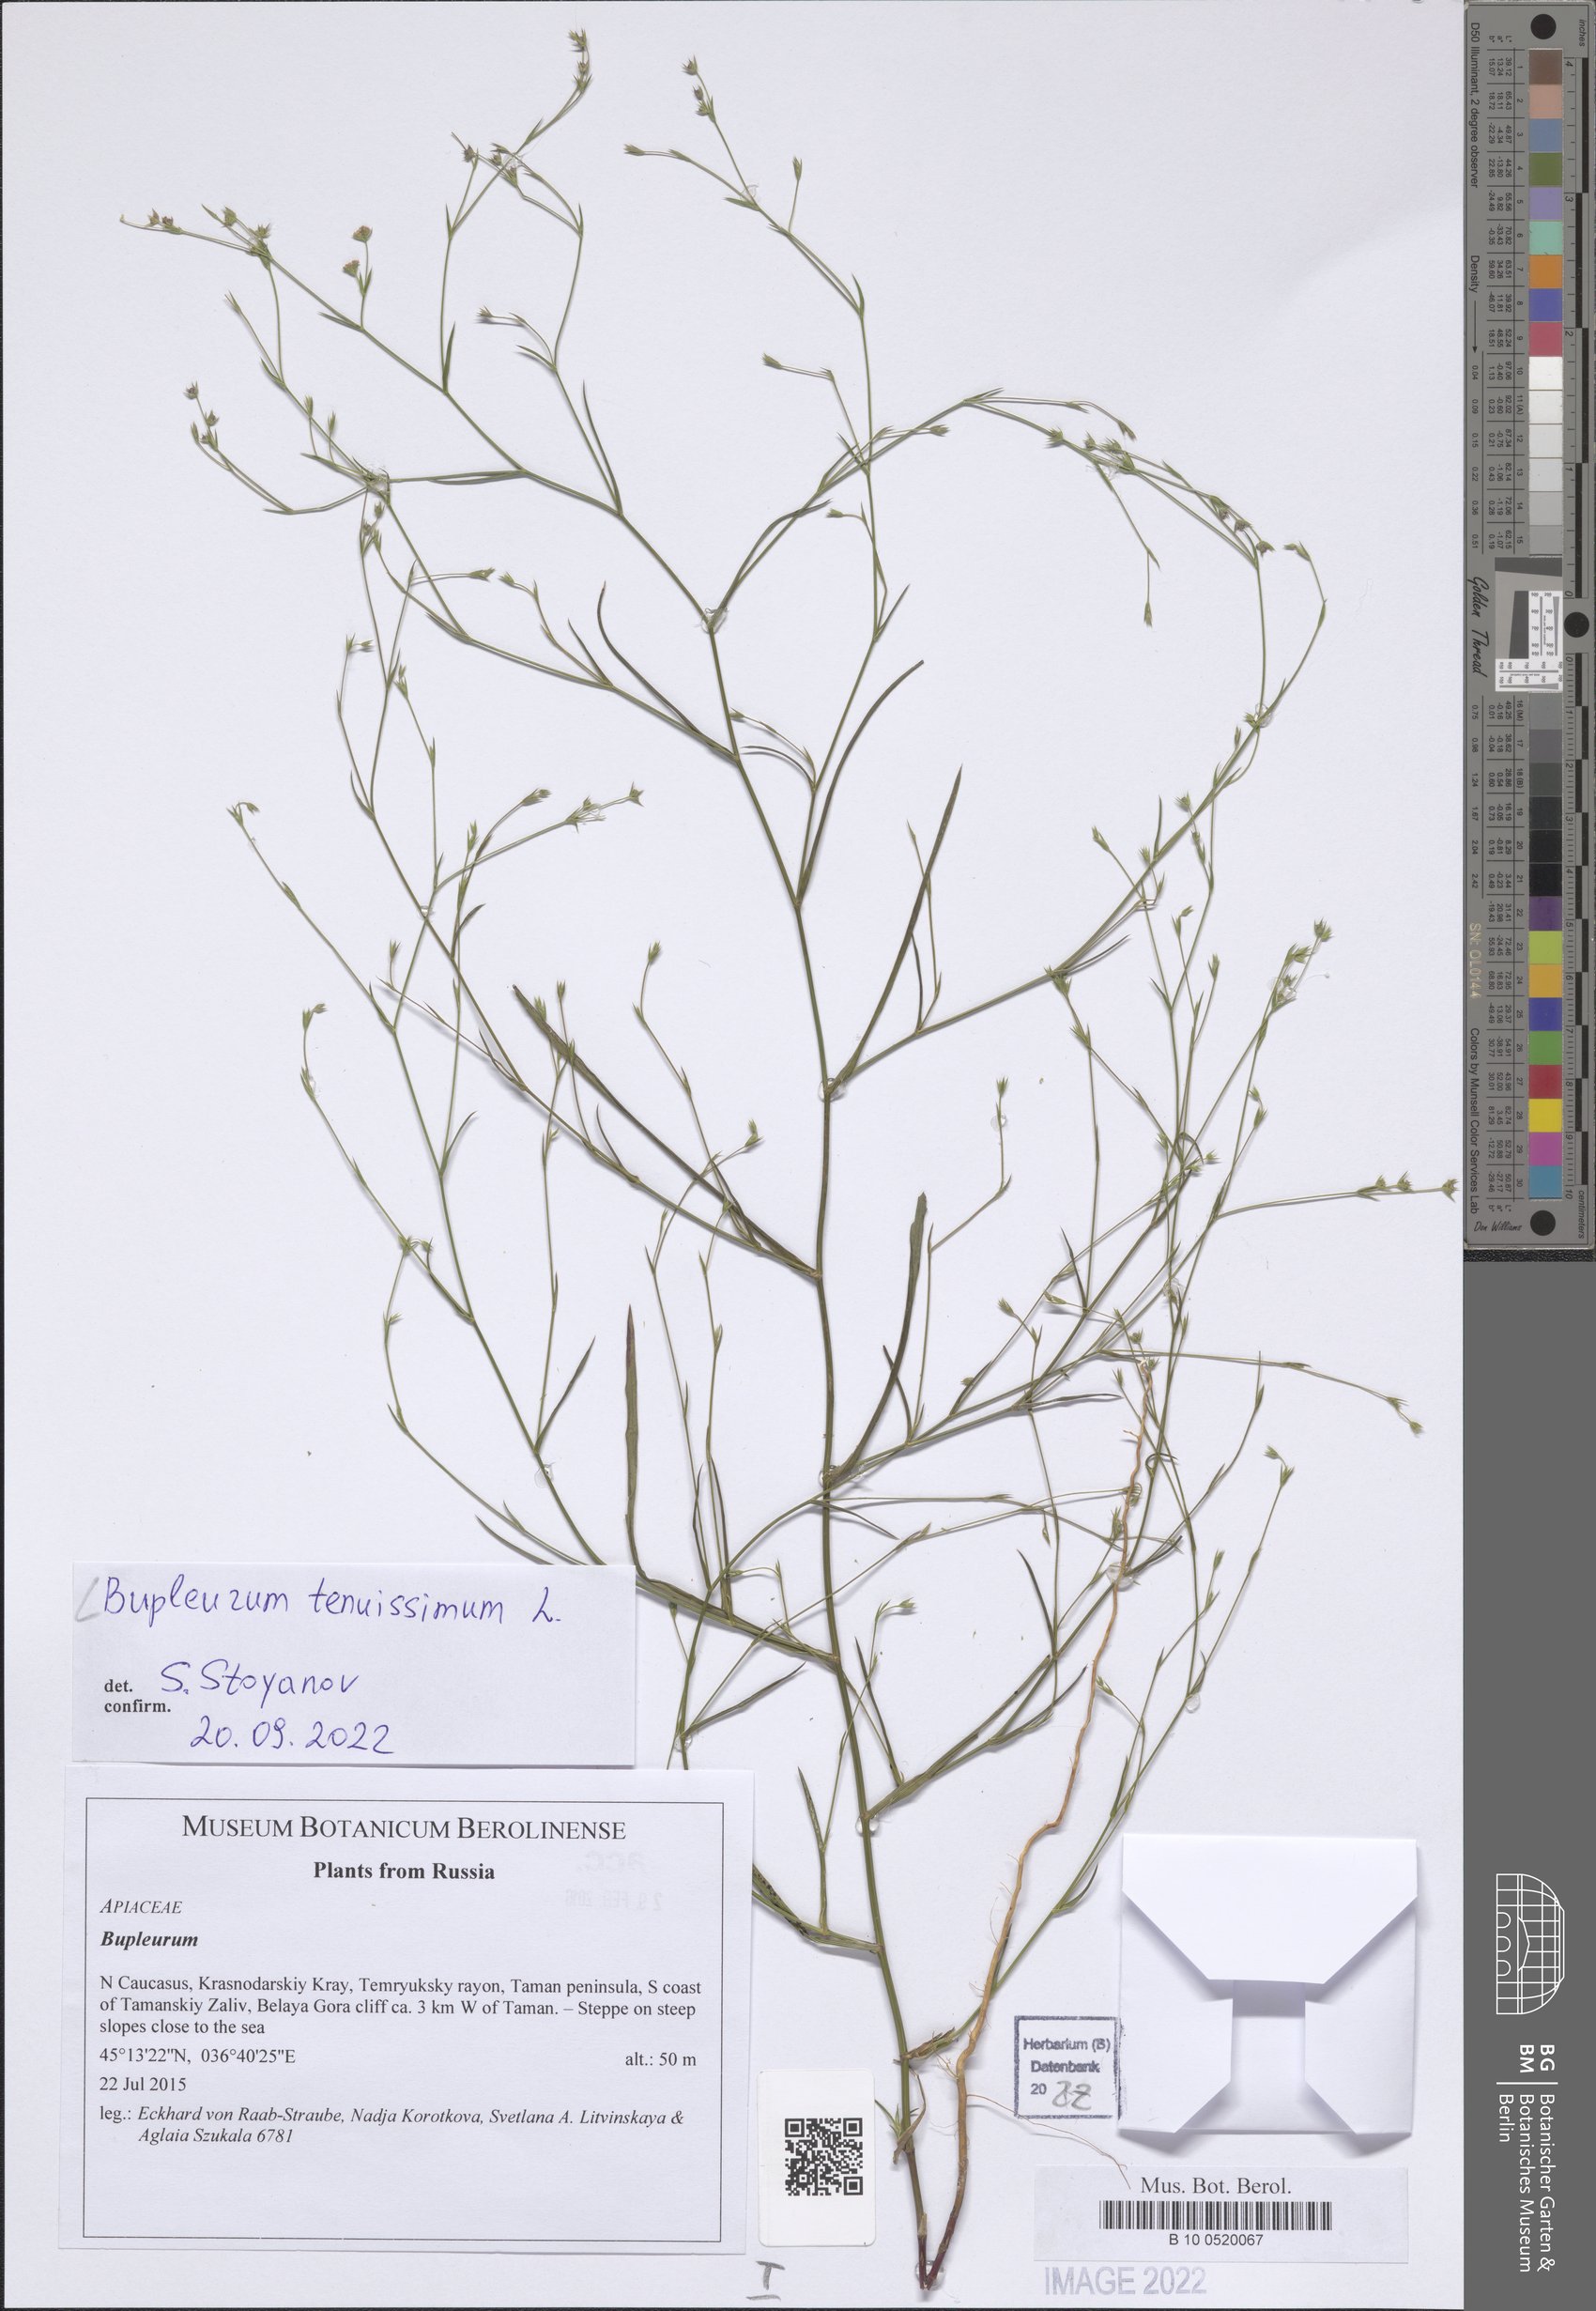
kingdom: Plantae
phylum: Tracheophyta
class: Magnoliopsida
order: Apiales
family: Apiaceae
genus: Bupleurum
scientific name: Bupleurum tenuissimum
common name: Slender hare's-ear
